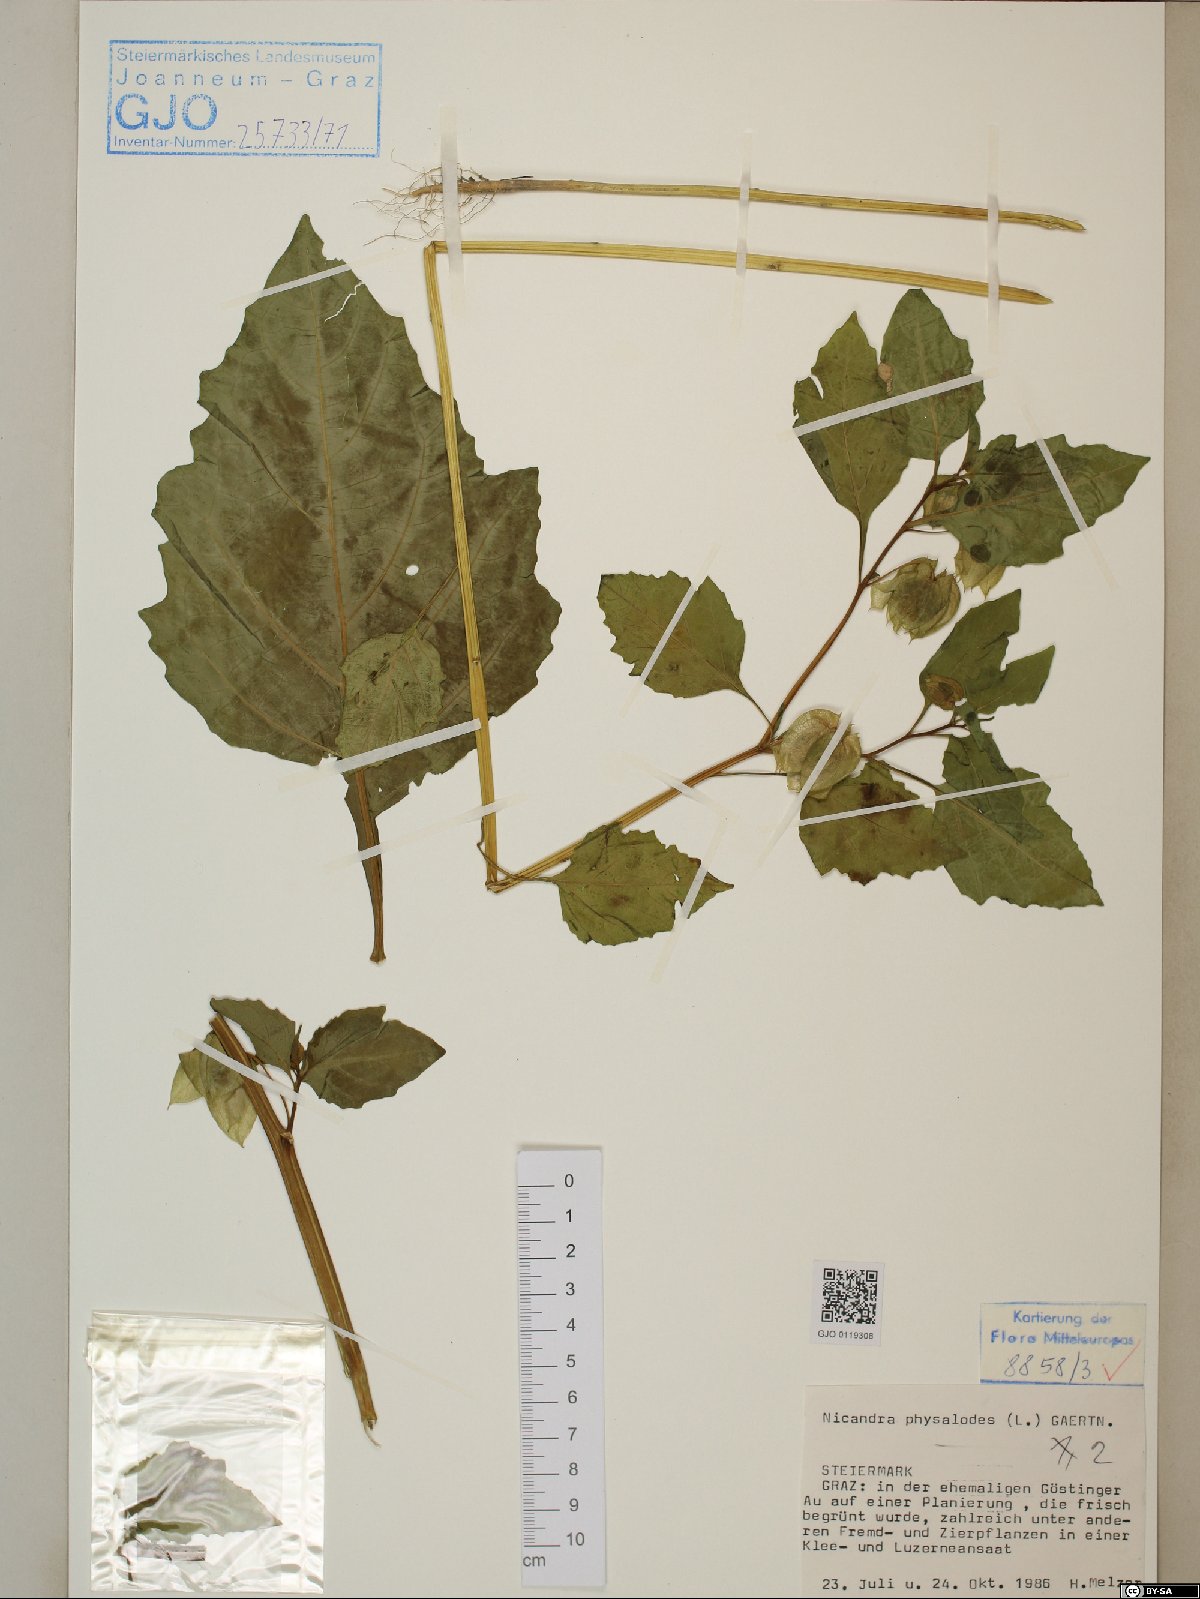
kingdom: Plantae
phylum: Tracheophyta
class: Magnoliopsida
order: Solanales
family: Solanaceae
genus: Nicandra
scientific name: Nicandra physalodes
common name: Apple-of-peru
